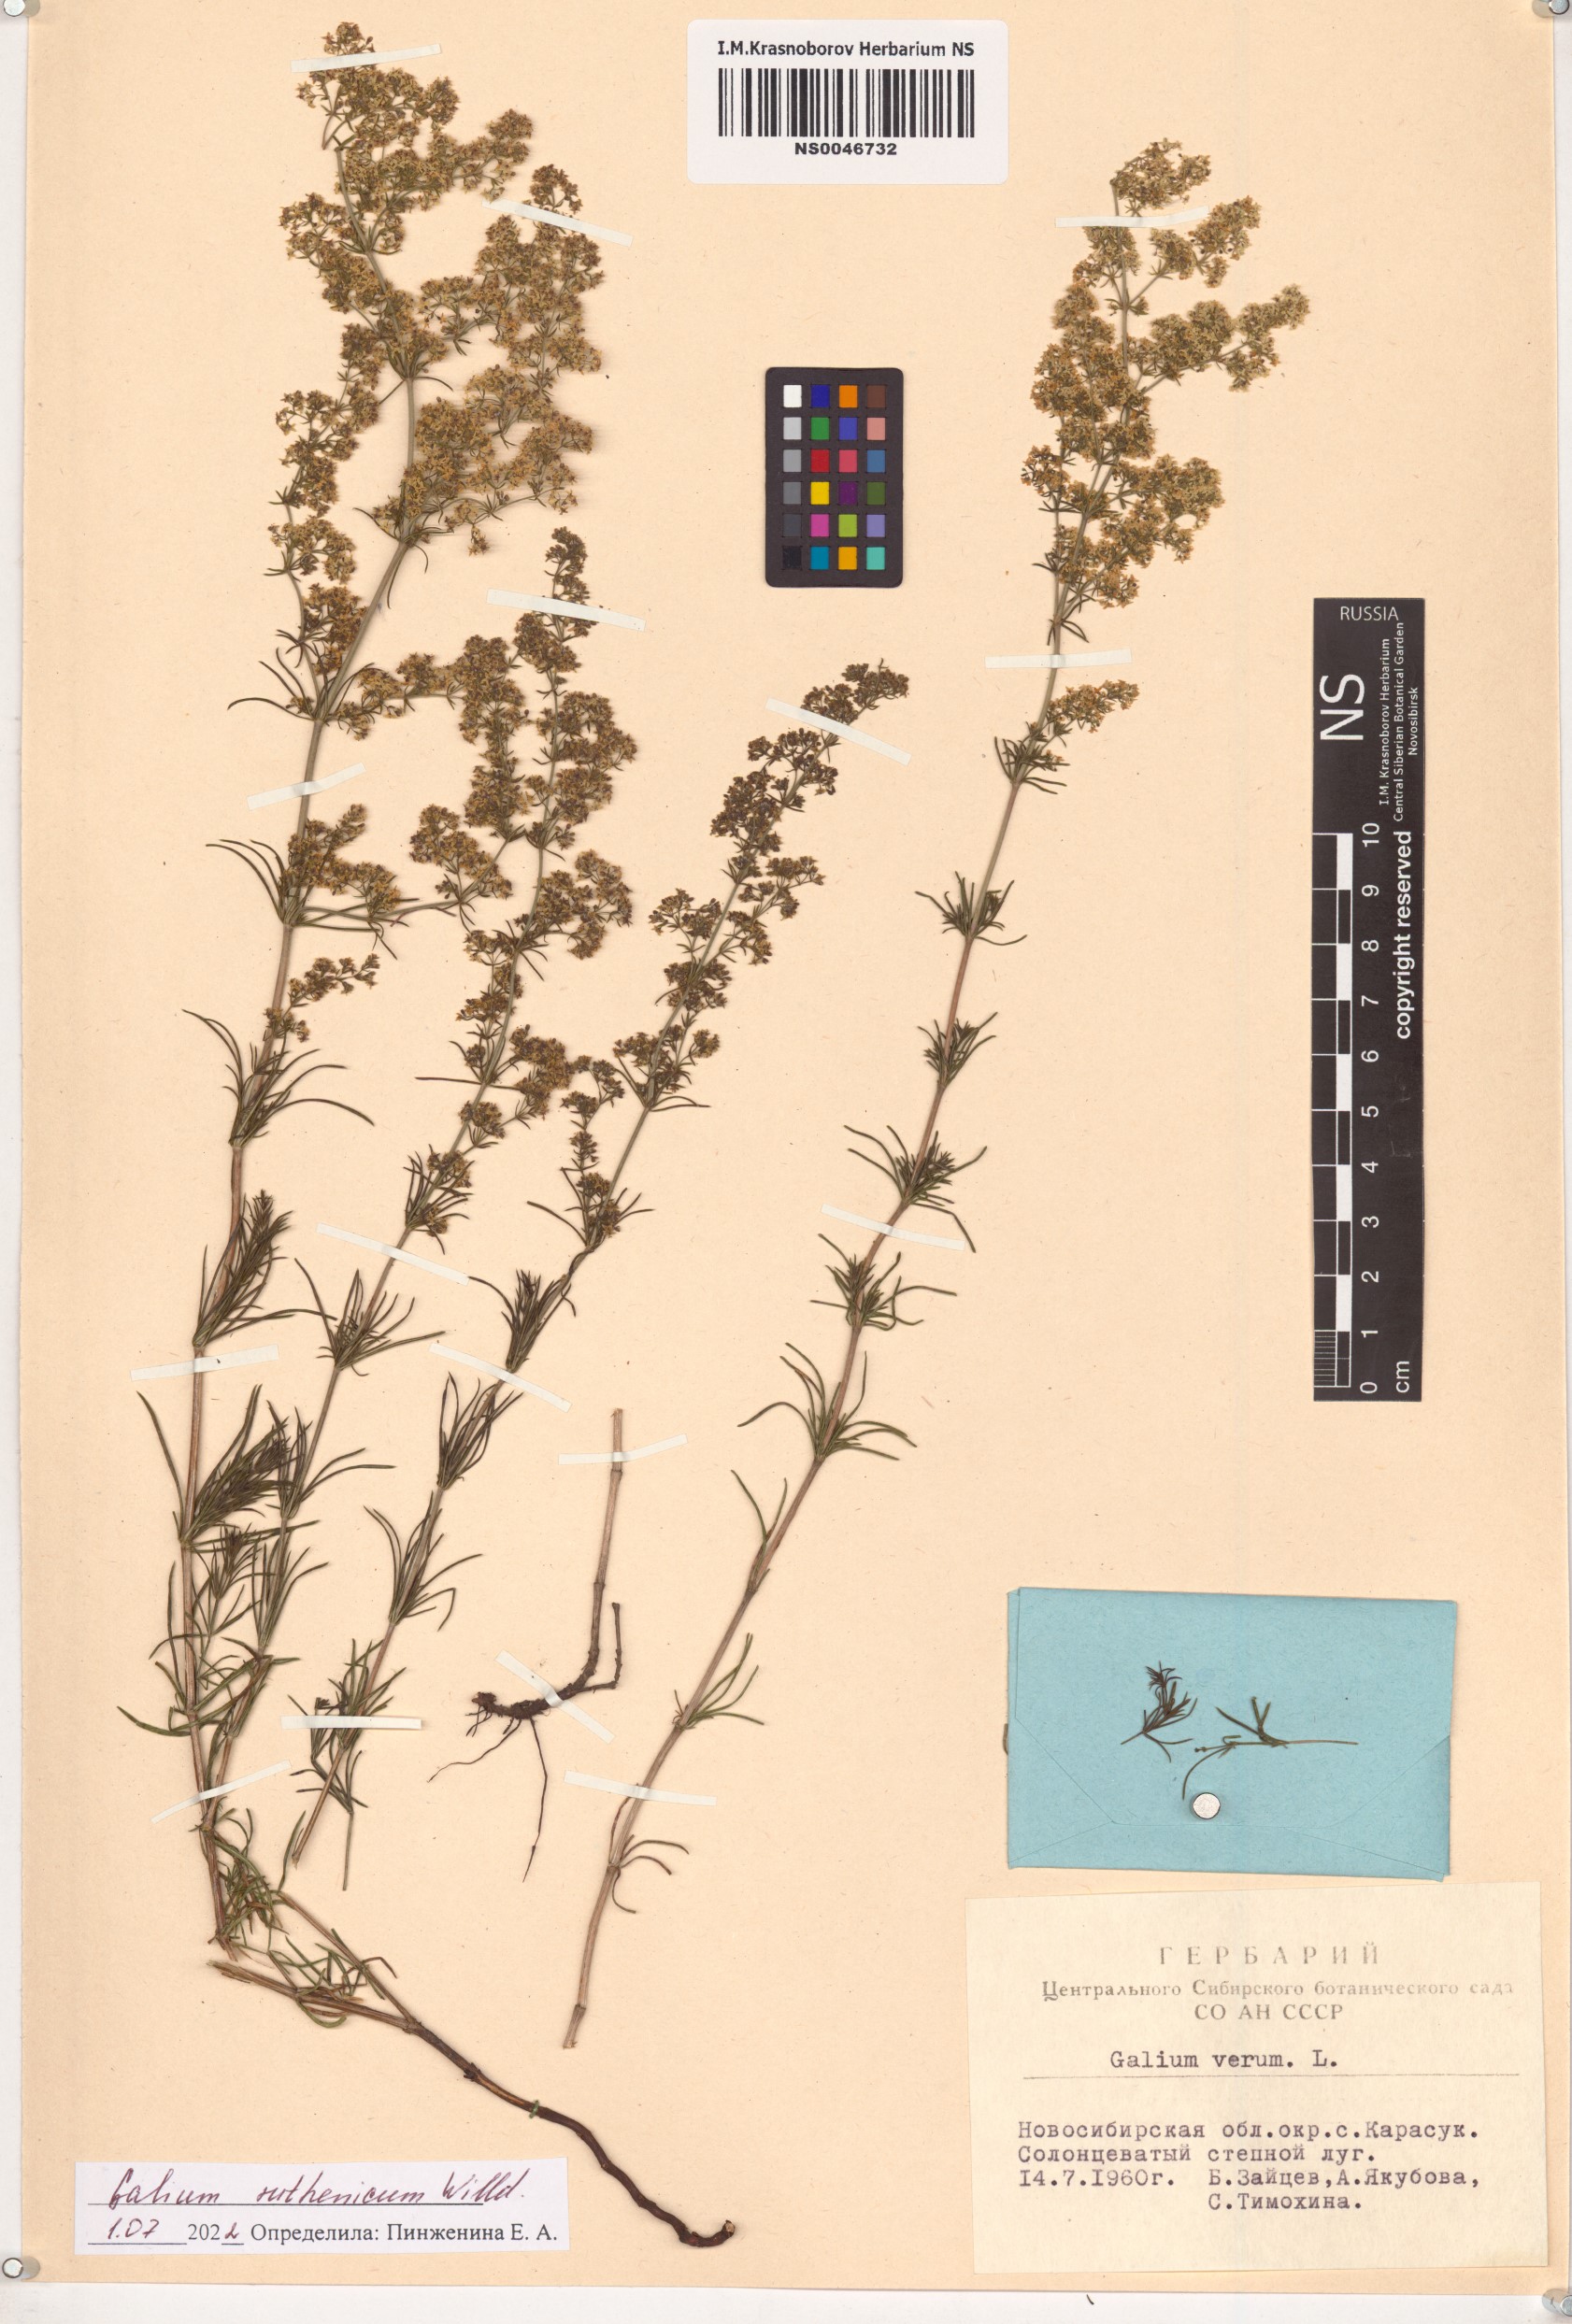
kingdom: Plantae
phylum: Tracheophyta
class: Magnoliopsida
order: Gentianales
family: Rubiaceae
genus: Galium
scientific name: Galium verum
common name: Lady's bedstraw
